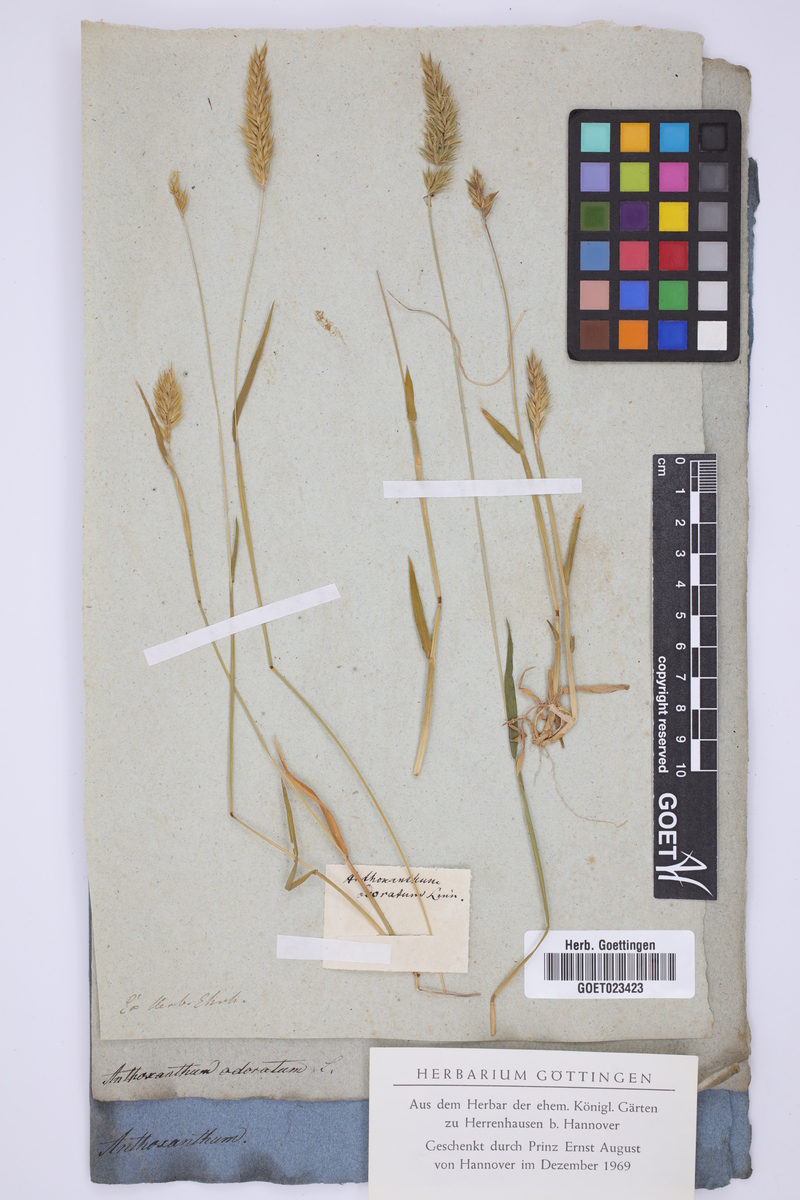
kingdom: Plantae
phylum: Tracheophyta
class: Liliopsida
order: Poales
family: Poaceae
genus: Anthoxanthum
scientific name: Anthoxanthum odoratum
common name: Sweet vernalgrass
